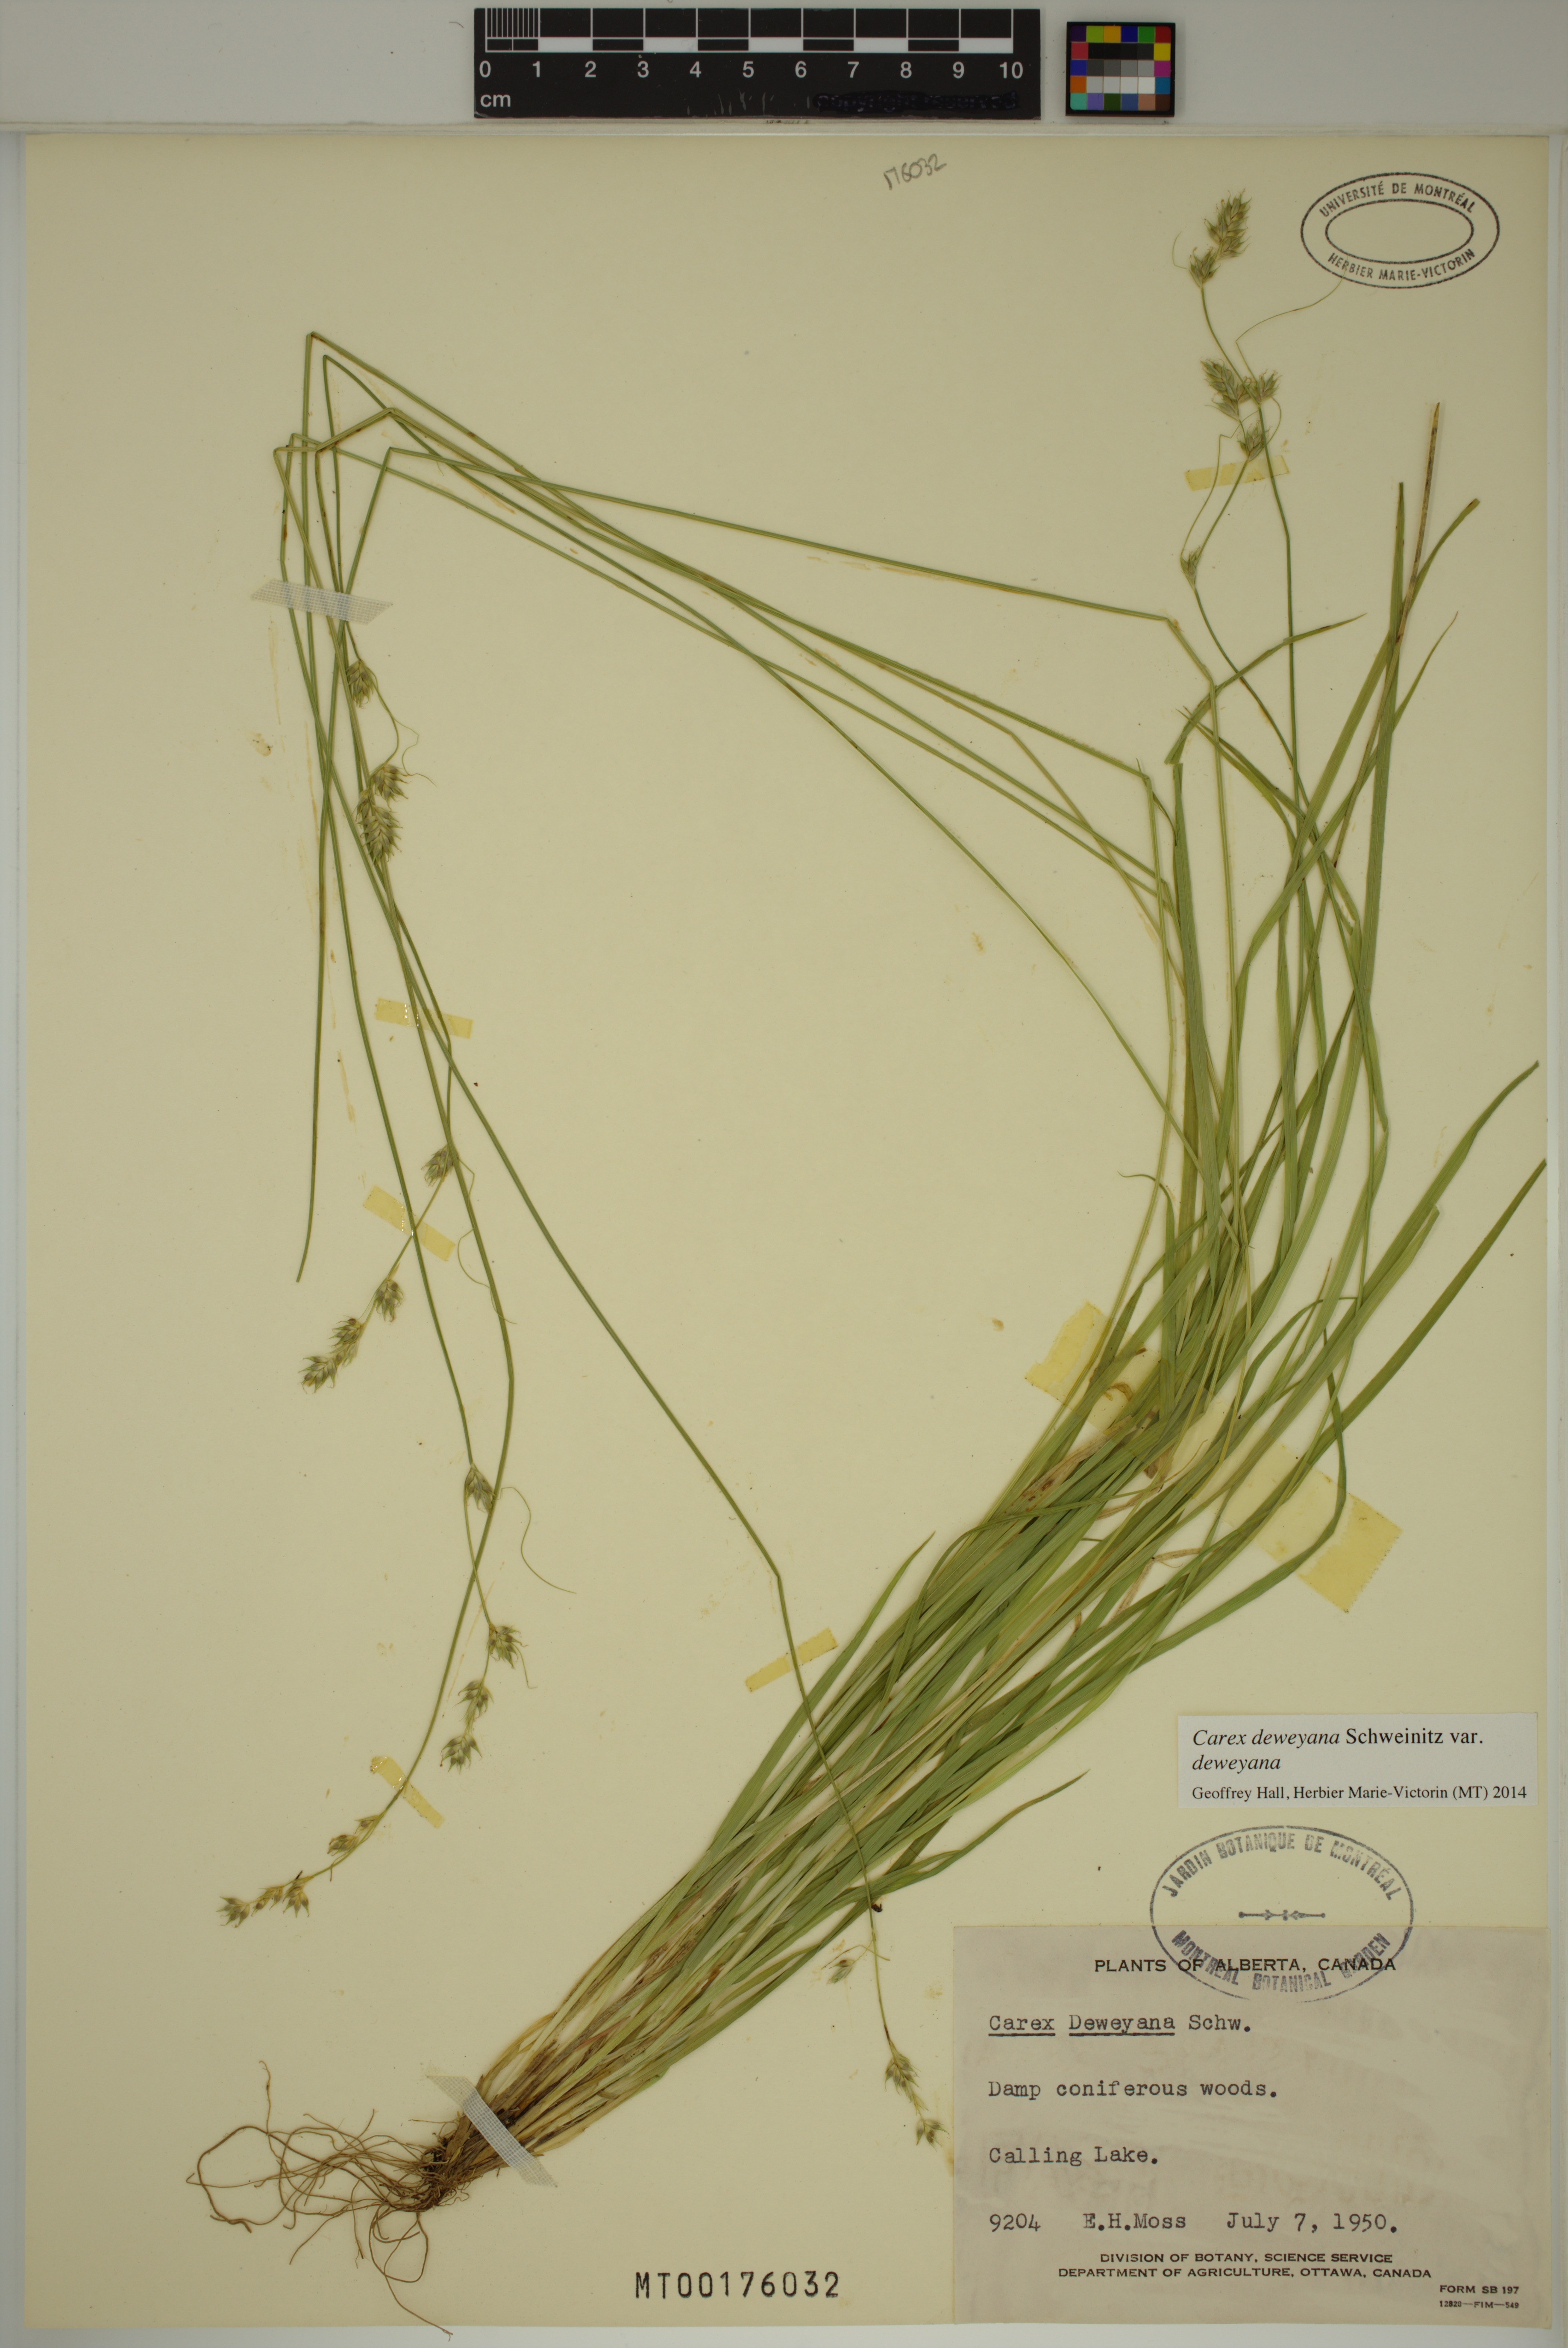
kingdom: Plantae
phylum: Tracheophyta
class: Liliopsida
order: Poales
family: Cyperaceae
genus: Carex
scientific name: Carex deweyana
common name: Dewey's sedge
